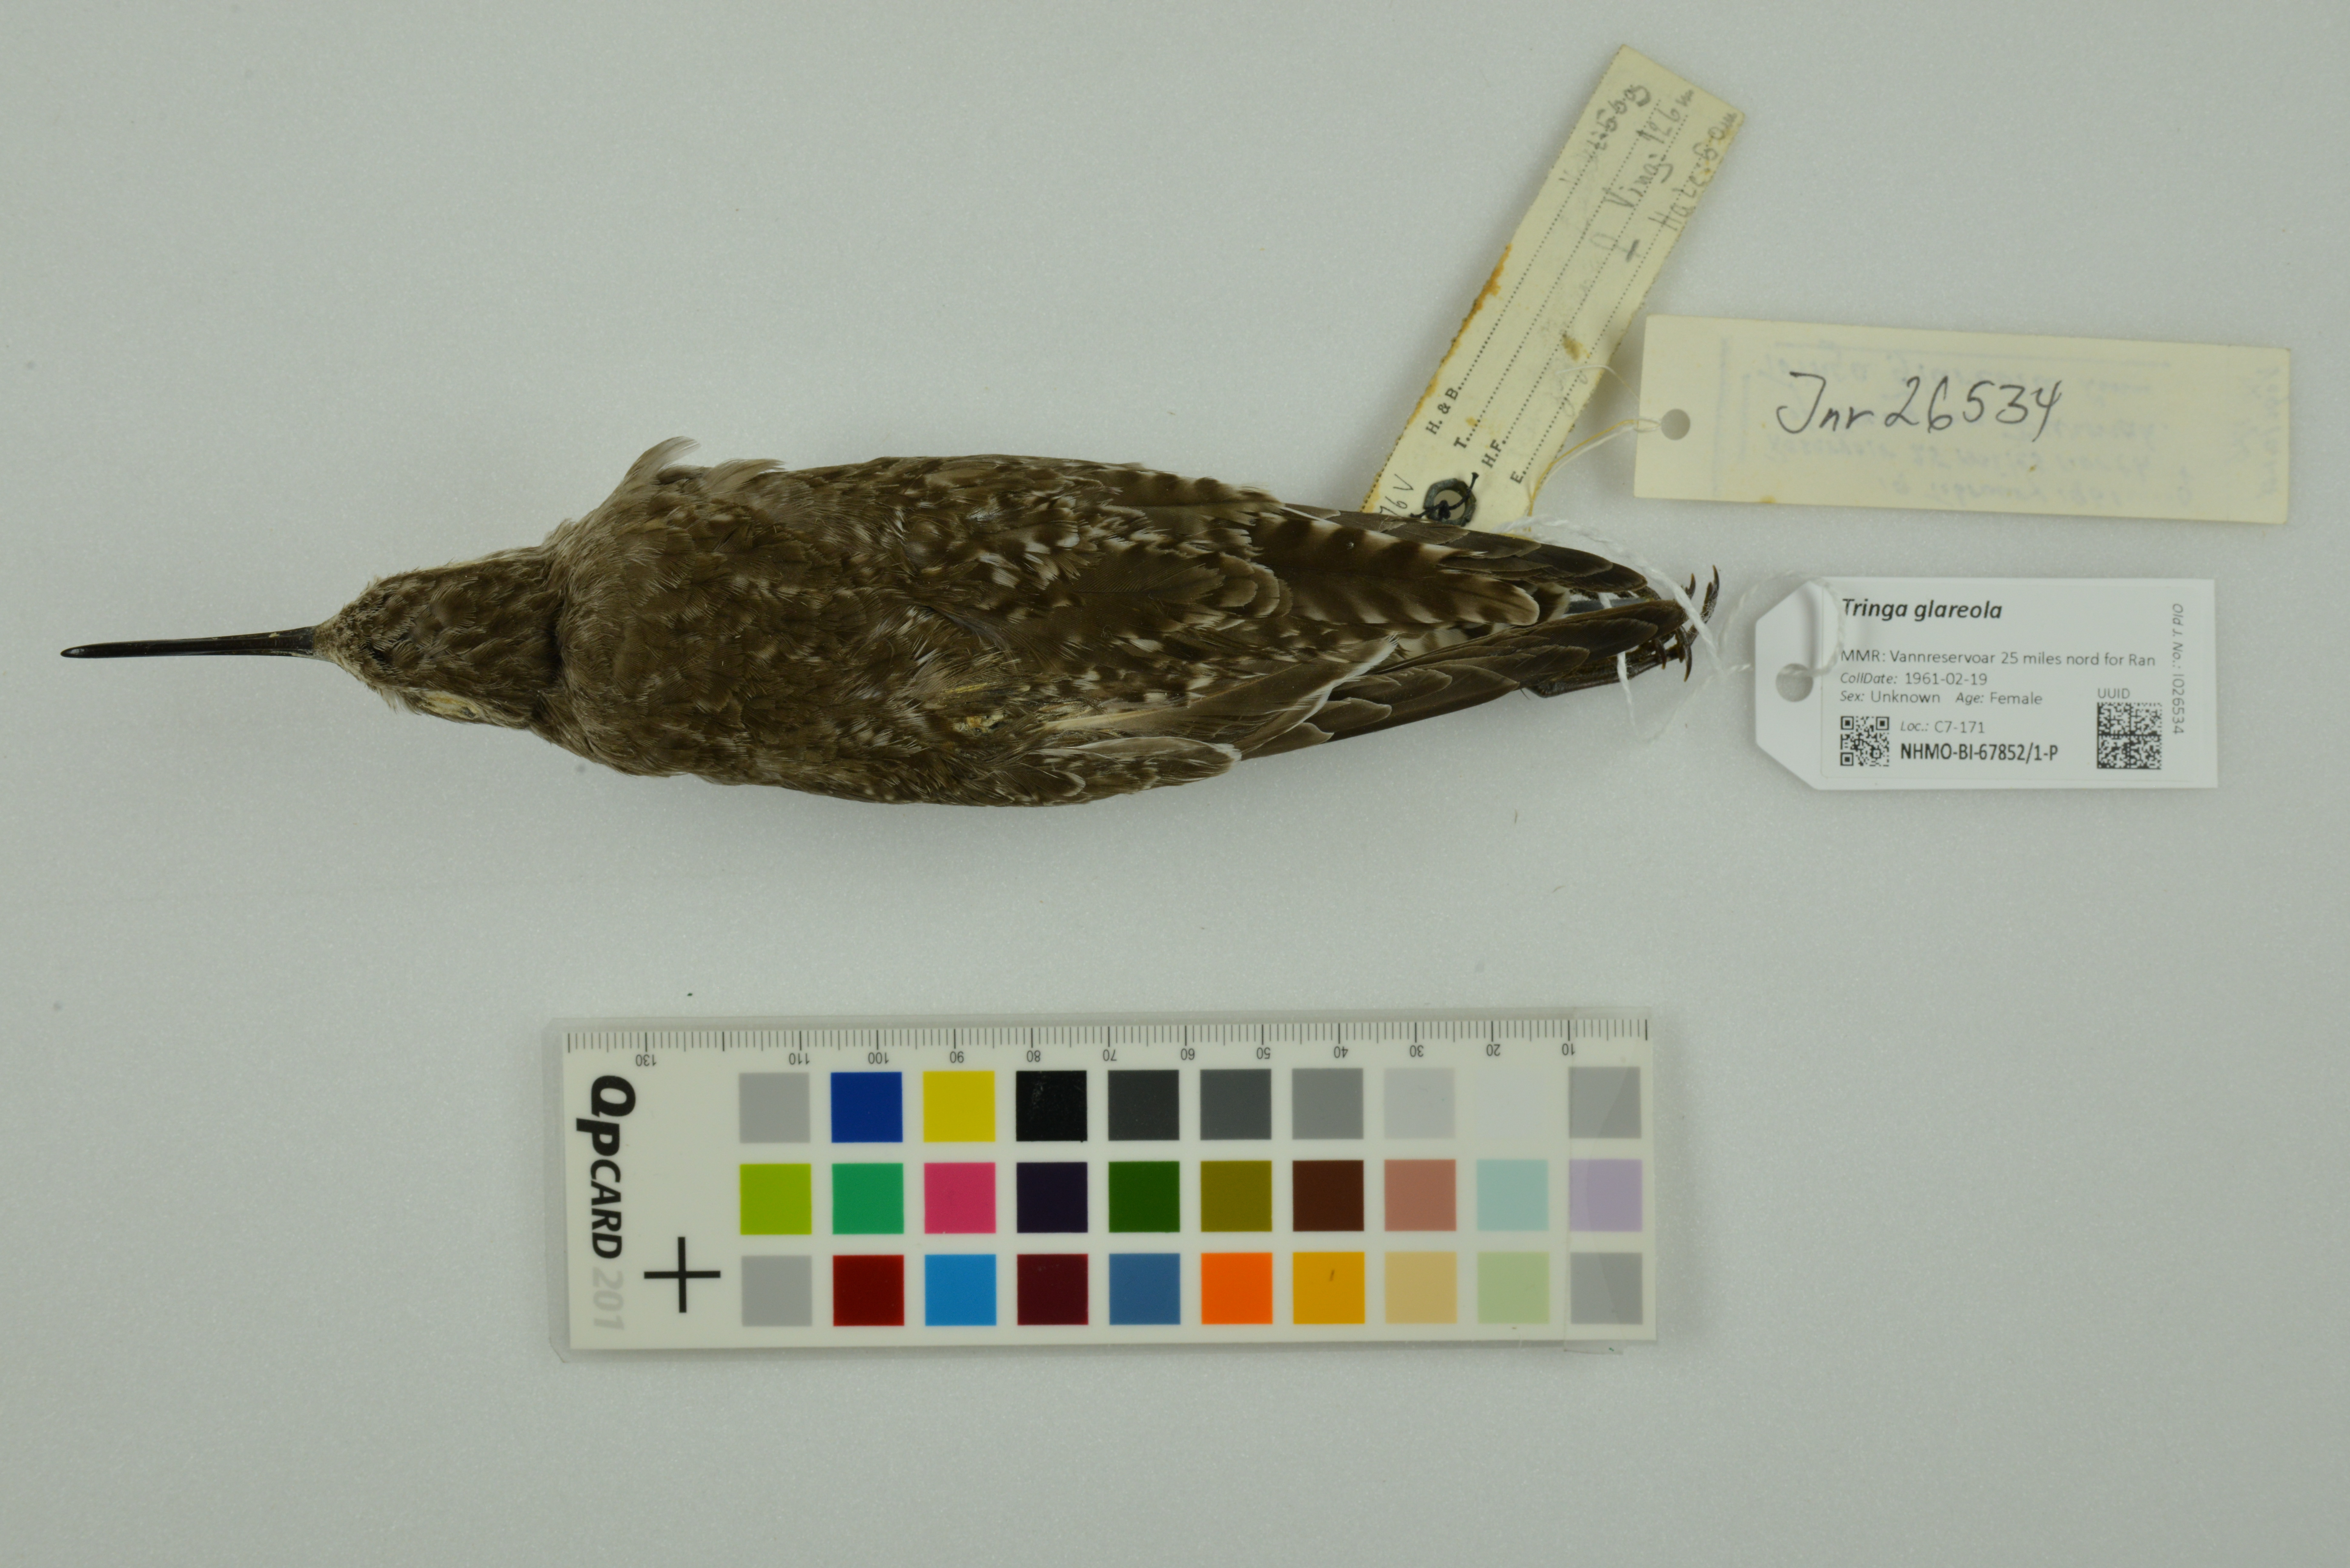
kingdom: Animalia
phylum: Chordata
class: Aves
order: Charadriiformes
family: Scolopacidae
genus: Tringa
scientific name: Tringa glareola
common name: Wood sandpiper
